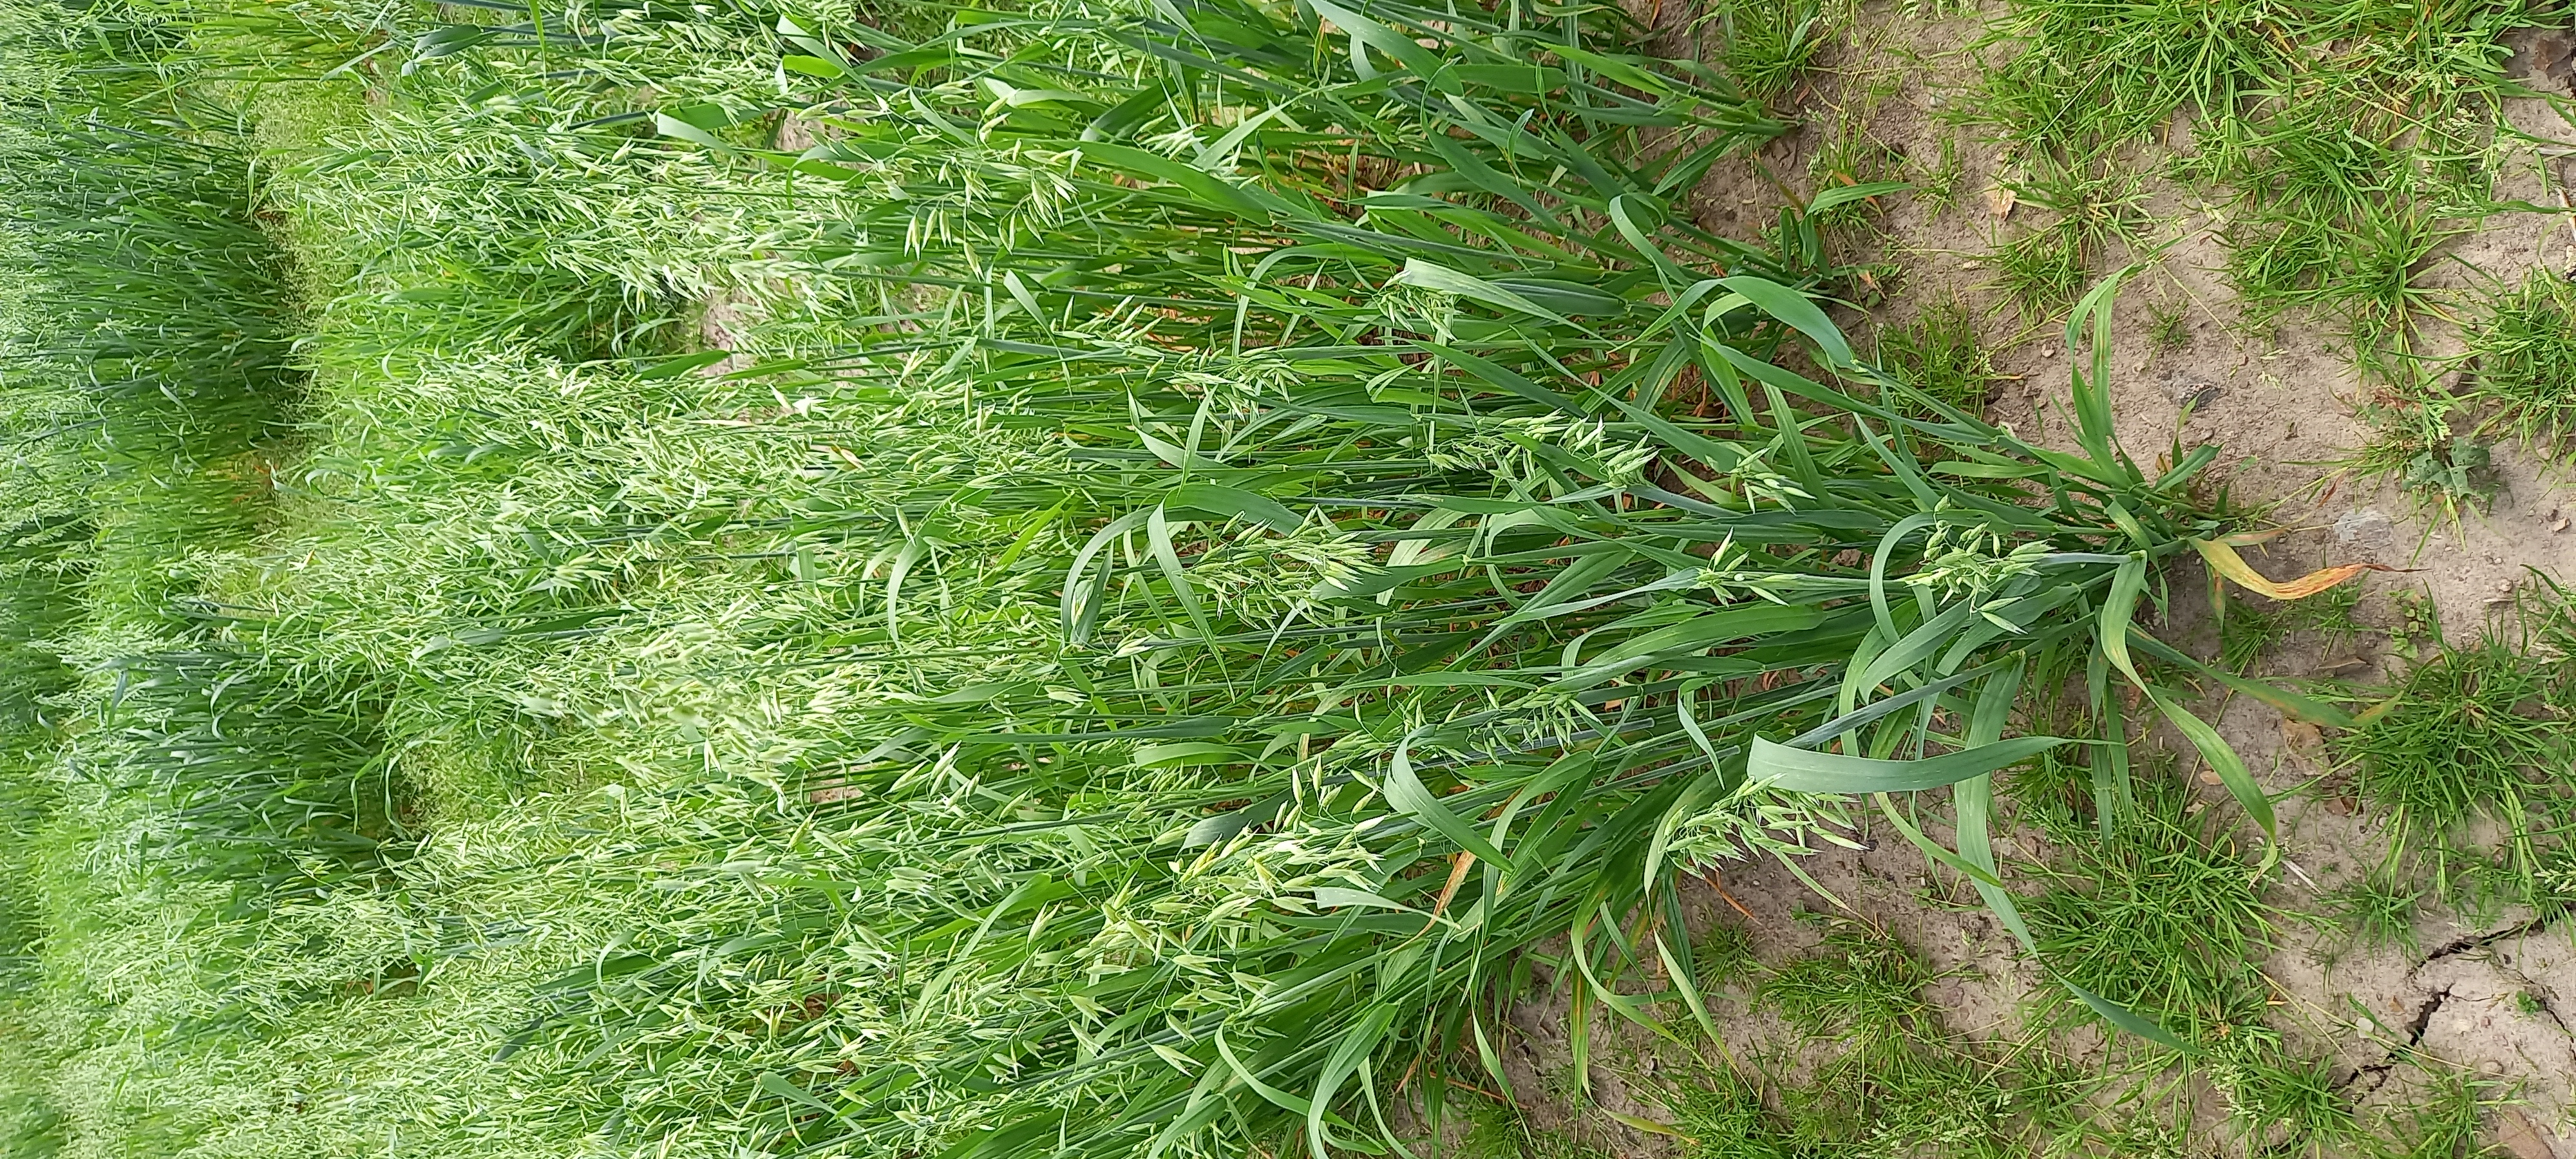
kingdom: Plantae
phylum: Tracheophyta
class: Liliopsida
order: Poales
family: Poaceae
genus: Avena
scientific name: Avena sativa
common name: Oat
